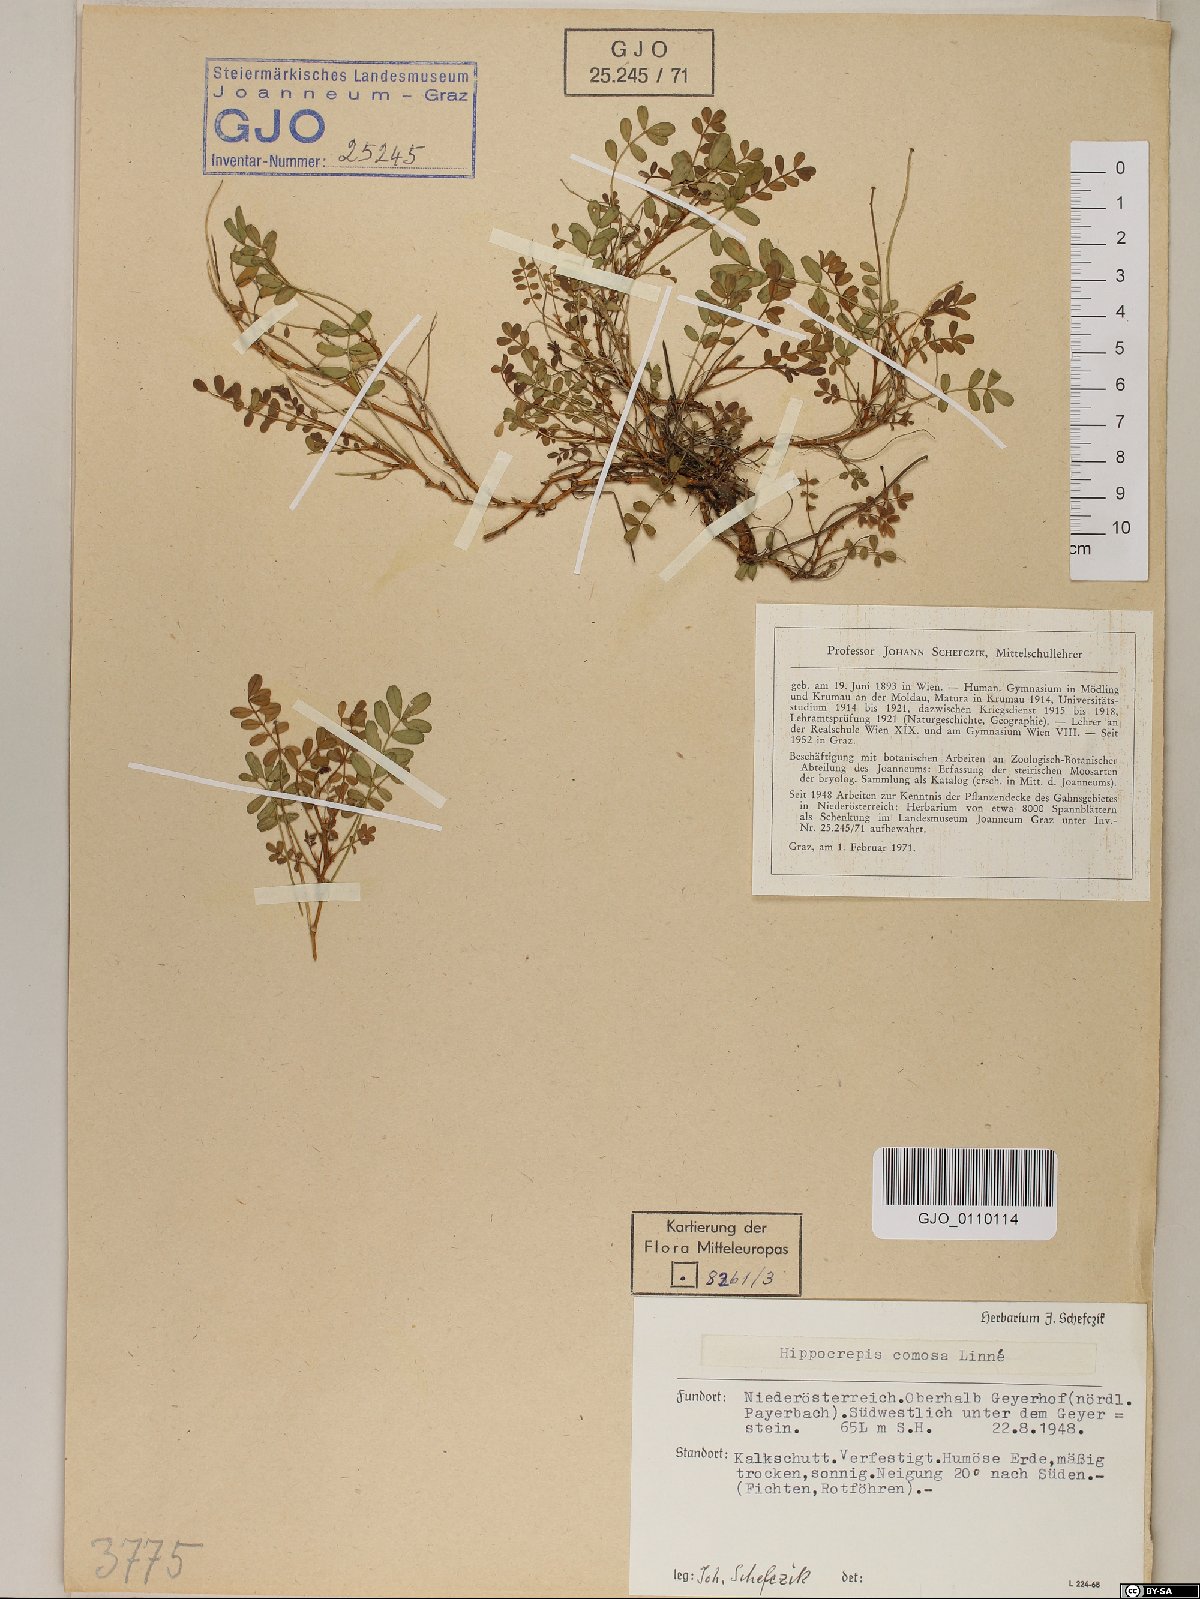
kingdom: Plantae
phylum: Tracheophyta
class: Magnoliopsida
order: Fabales
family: Fabaceae
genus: Hippocrepis
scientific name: Hippocrepis comosa
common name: Horseshoe vetch
